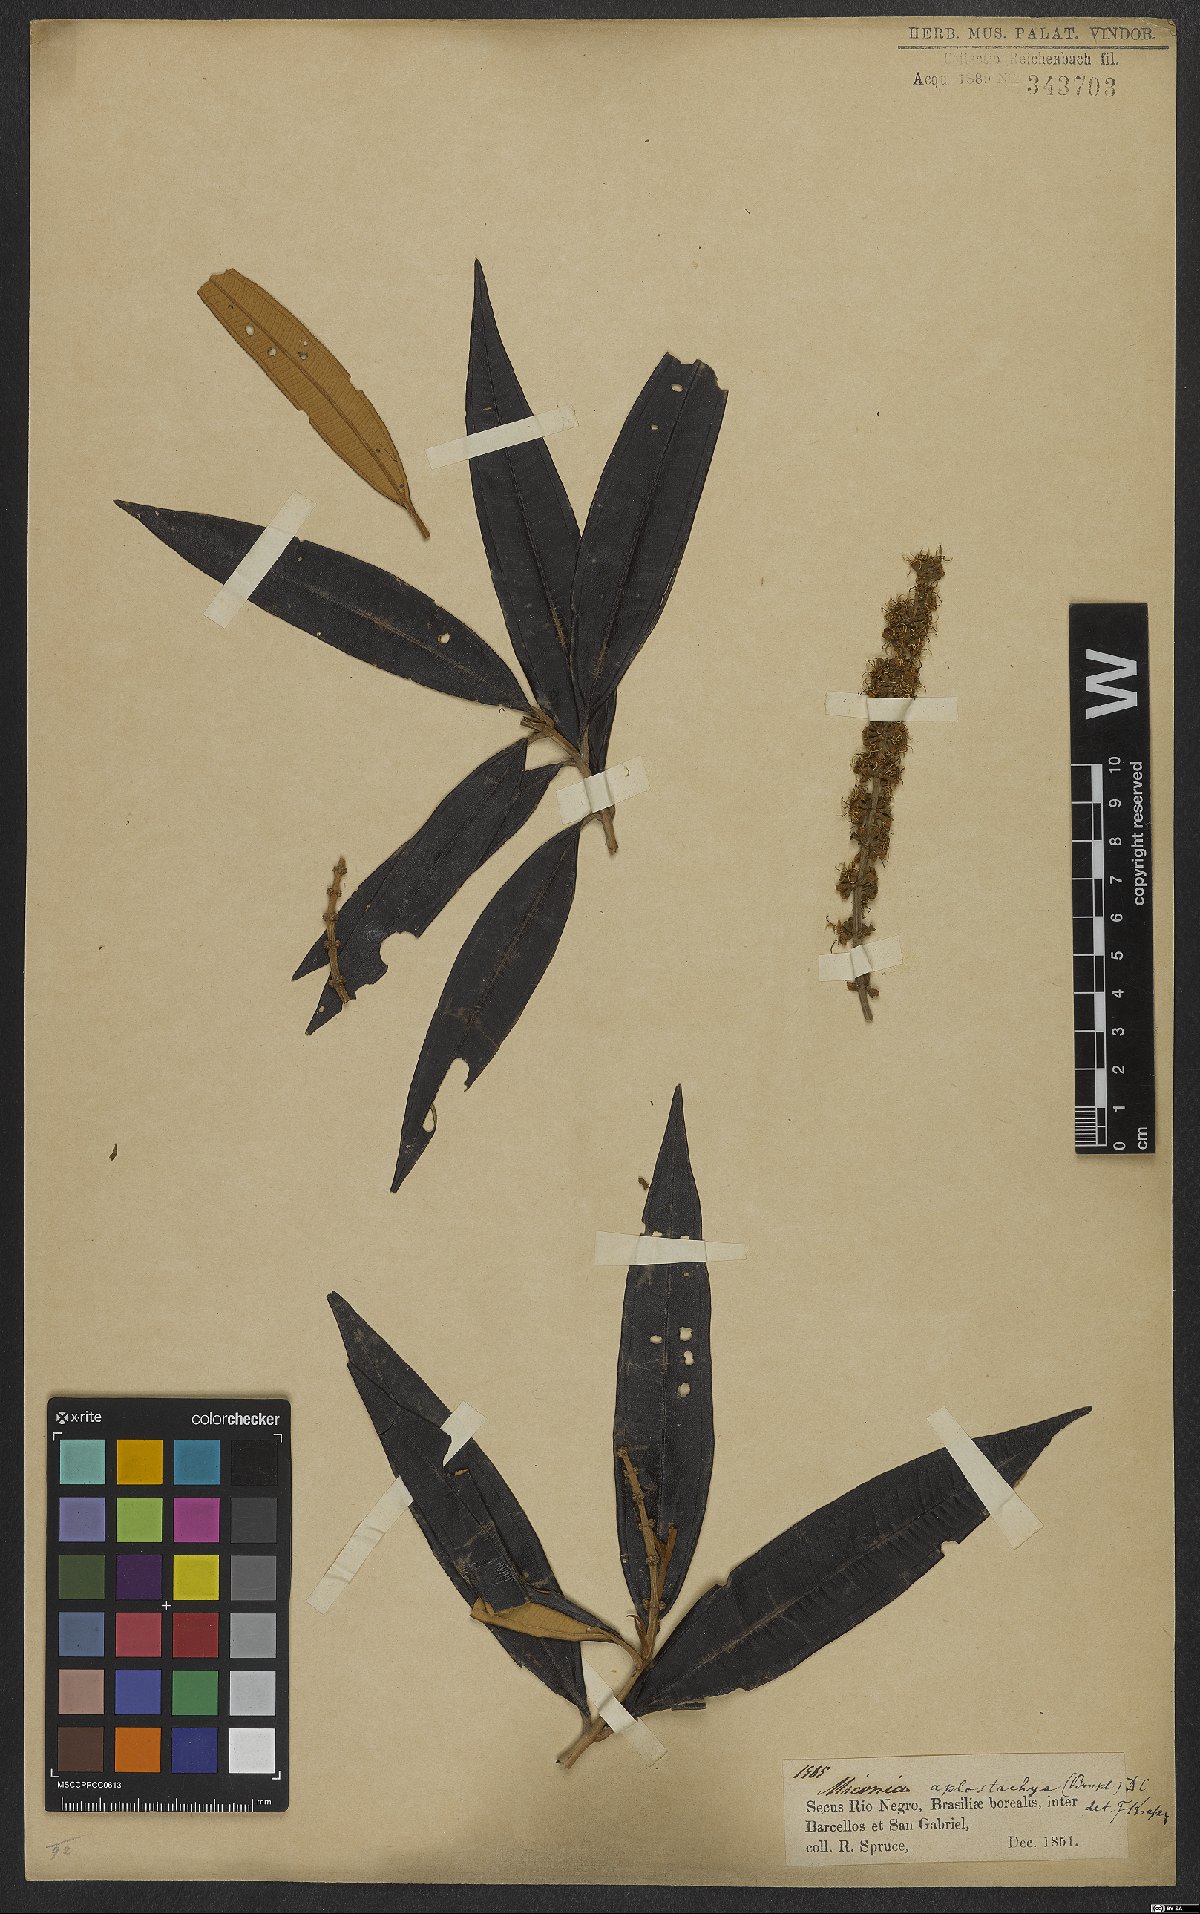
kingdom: Plantae
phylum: Tracheophyta
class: Magnoliopsida
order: Myrtales
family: Melastomataceae
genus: Miconia
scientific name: Miconia aplostachya
